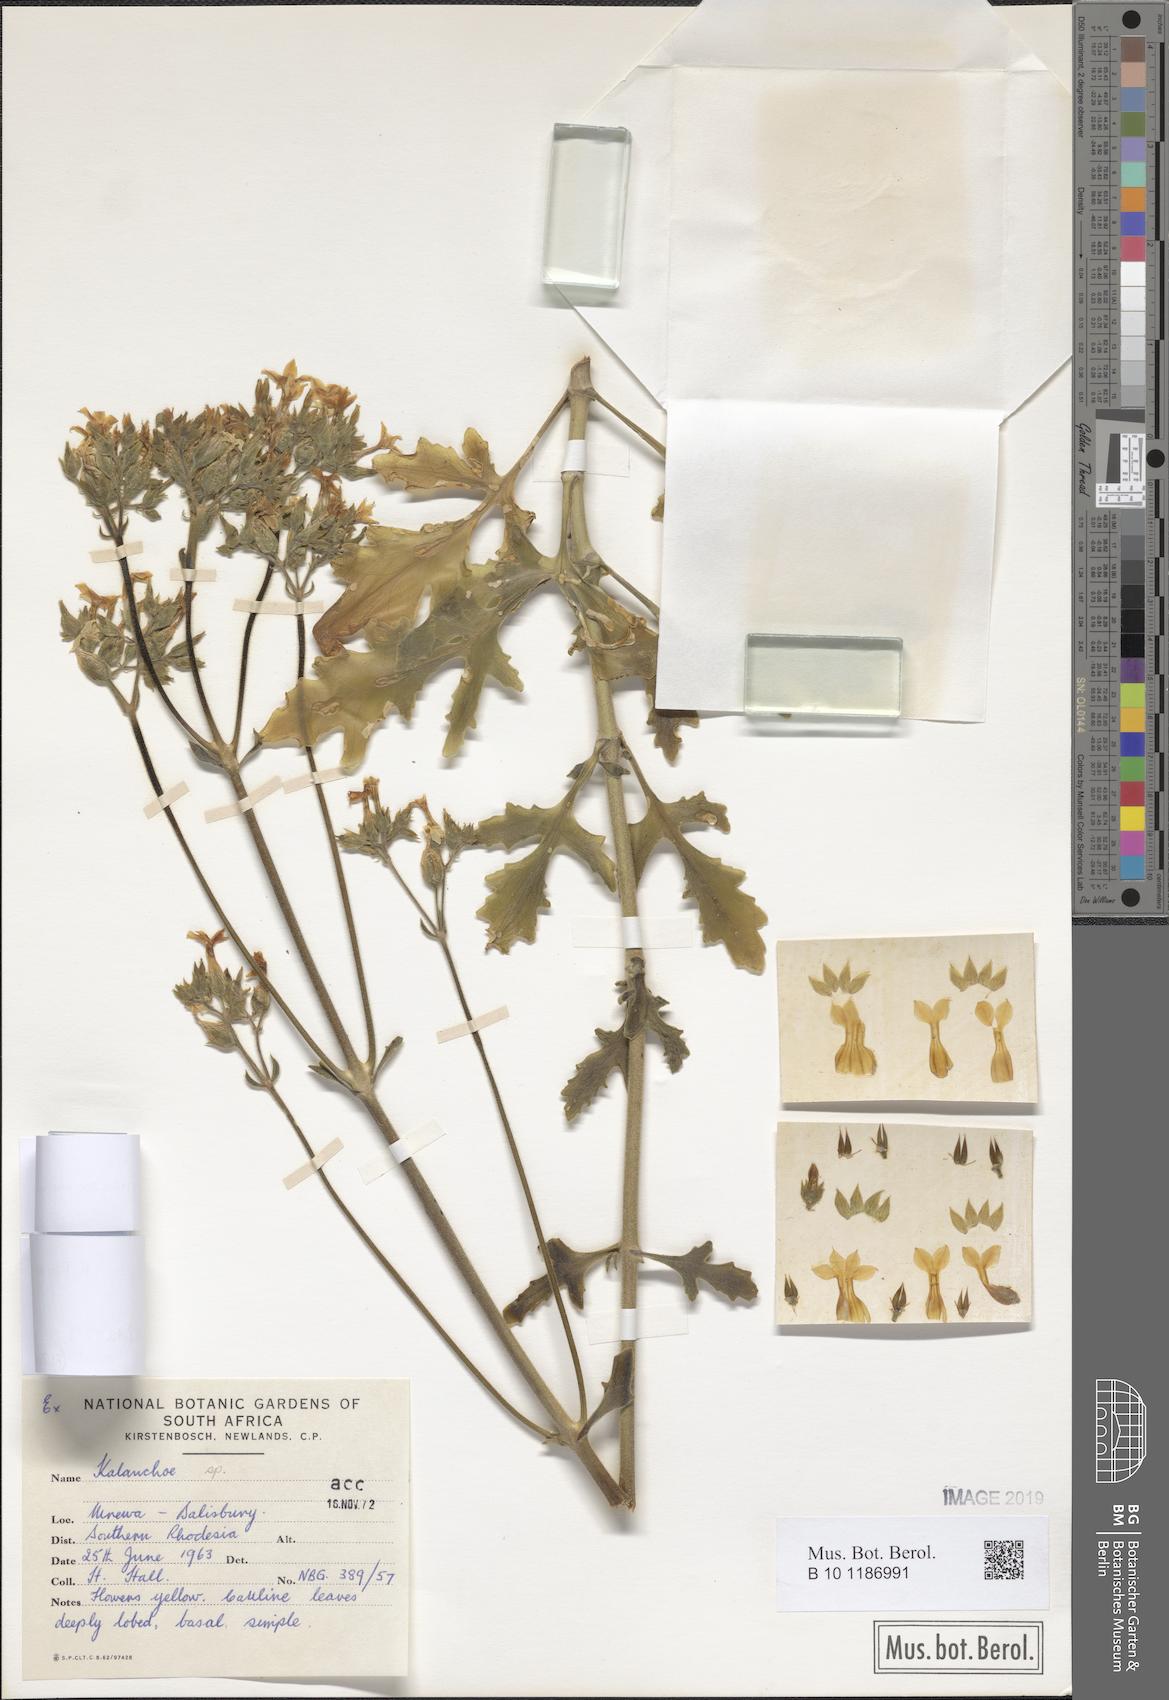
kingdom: Plantae
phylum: Tracheophyta
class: Magnoliopsida
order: Saxifragales
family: Crassulaceae
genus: Kalanchoe
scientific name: Kalanchoe lobata
